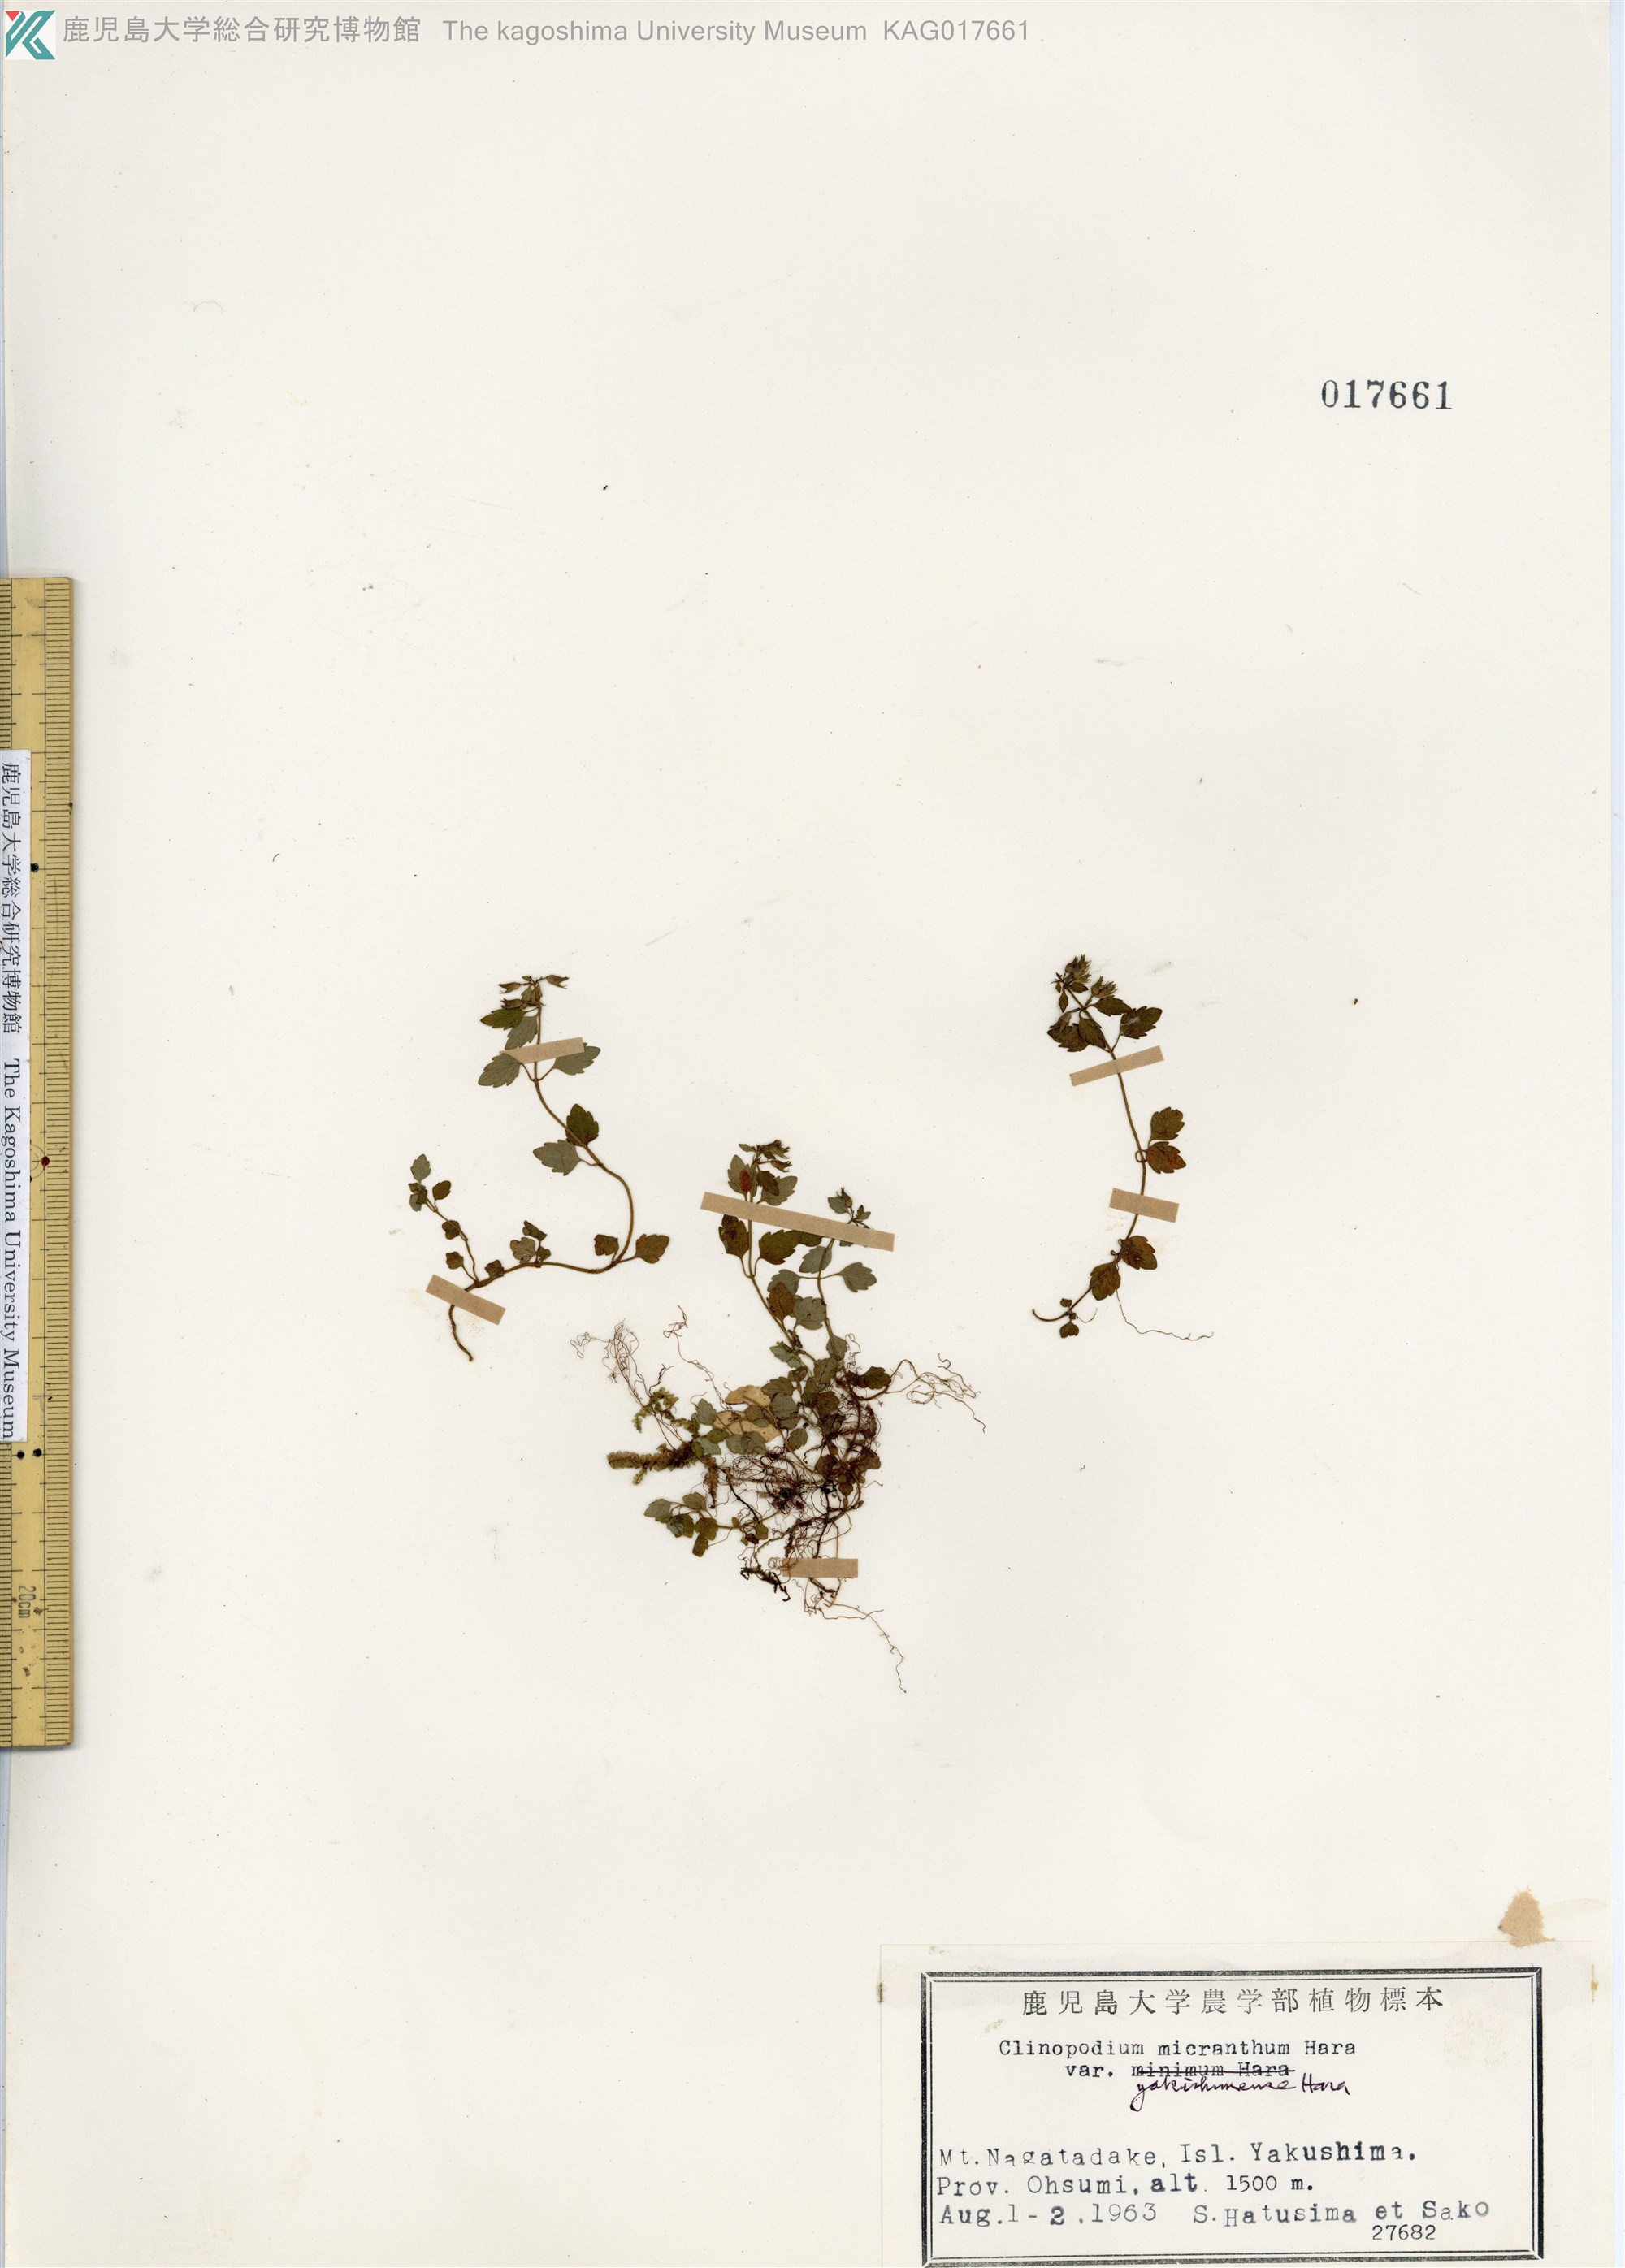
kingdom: Plantae
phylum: Tracheophyta
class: Magnoliopsida
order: Lamiales
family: Lamiaceae
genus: Clinopodium
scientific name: Clinopodium multicaule
